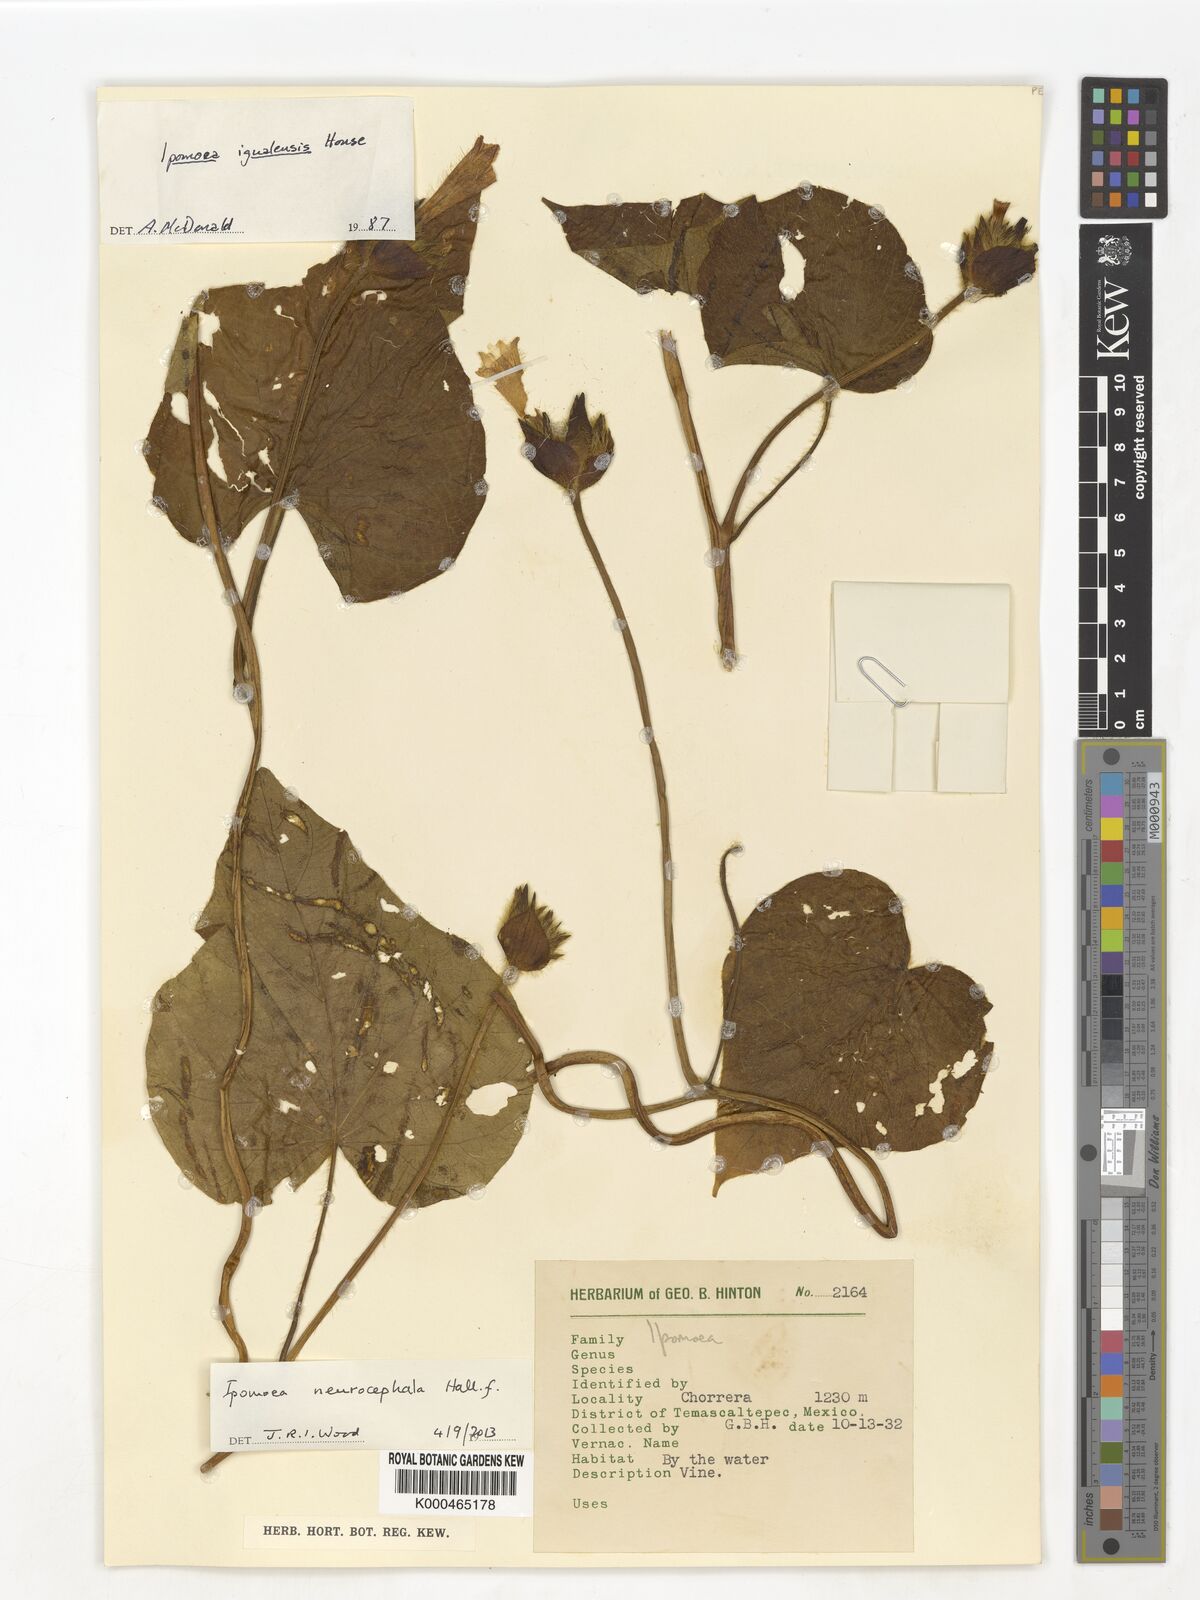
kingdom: Plantae
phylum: Tracheophyta
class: Magnoliopsida
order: Solanales
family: Convolvulaceae
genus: Ipomoea
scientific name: Ipomoea neurocephala
